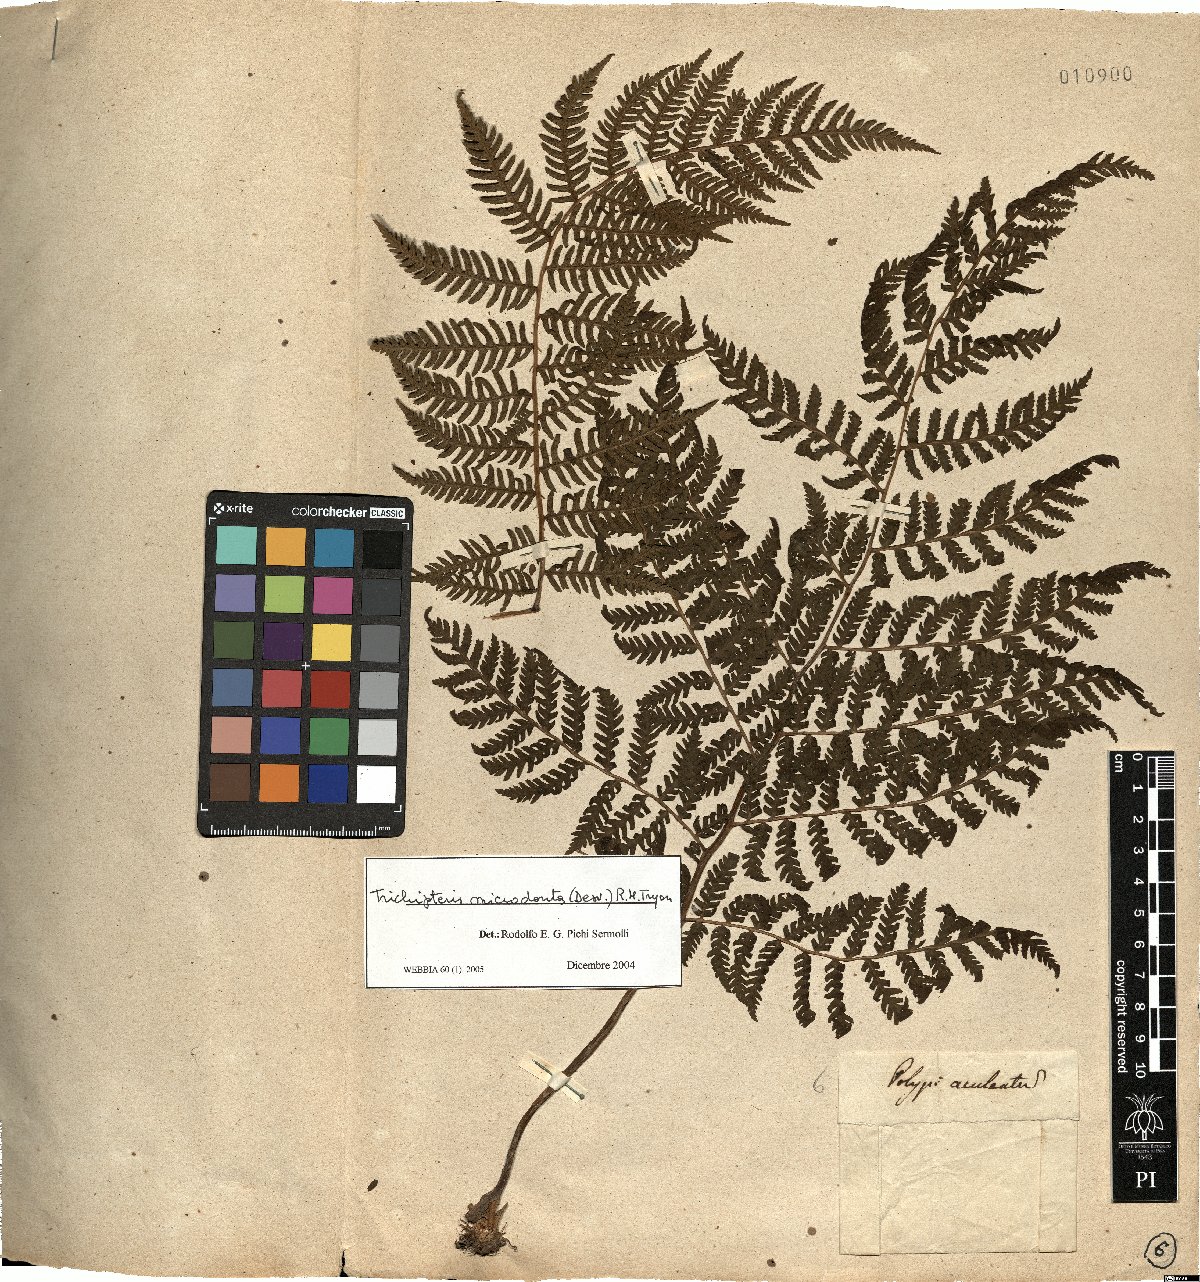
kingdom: Plantae
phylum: Tracheophyta
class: Polypodiopsida
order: Cyatheales
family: Cyatheaceae
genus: Cyathea
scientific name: Cyathea microdonta
